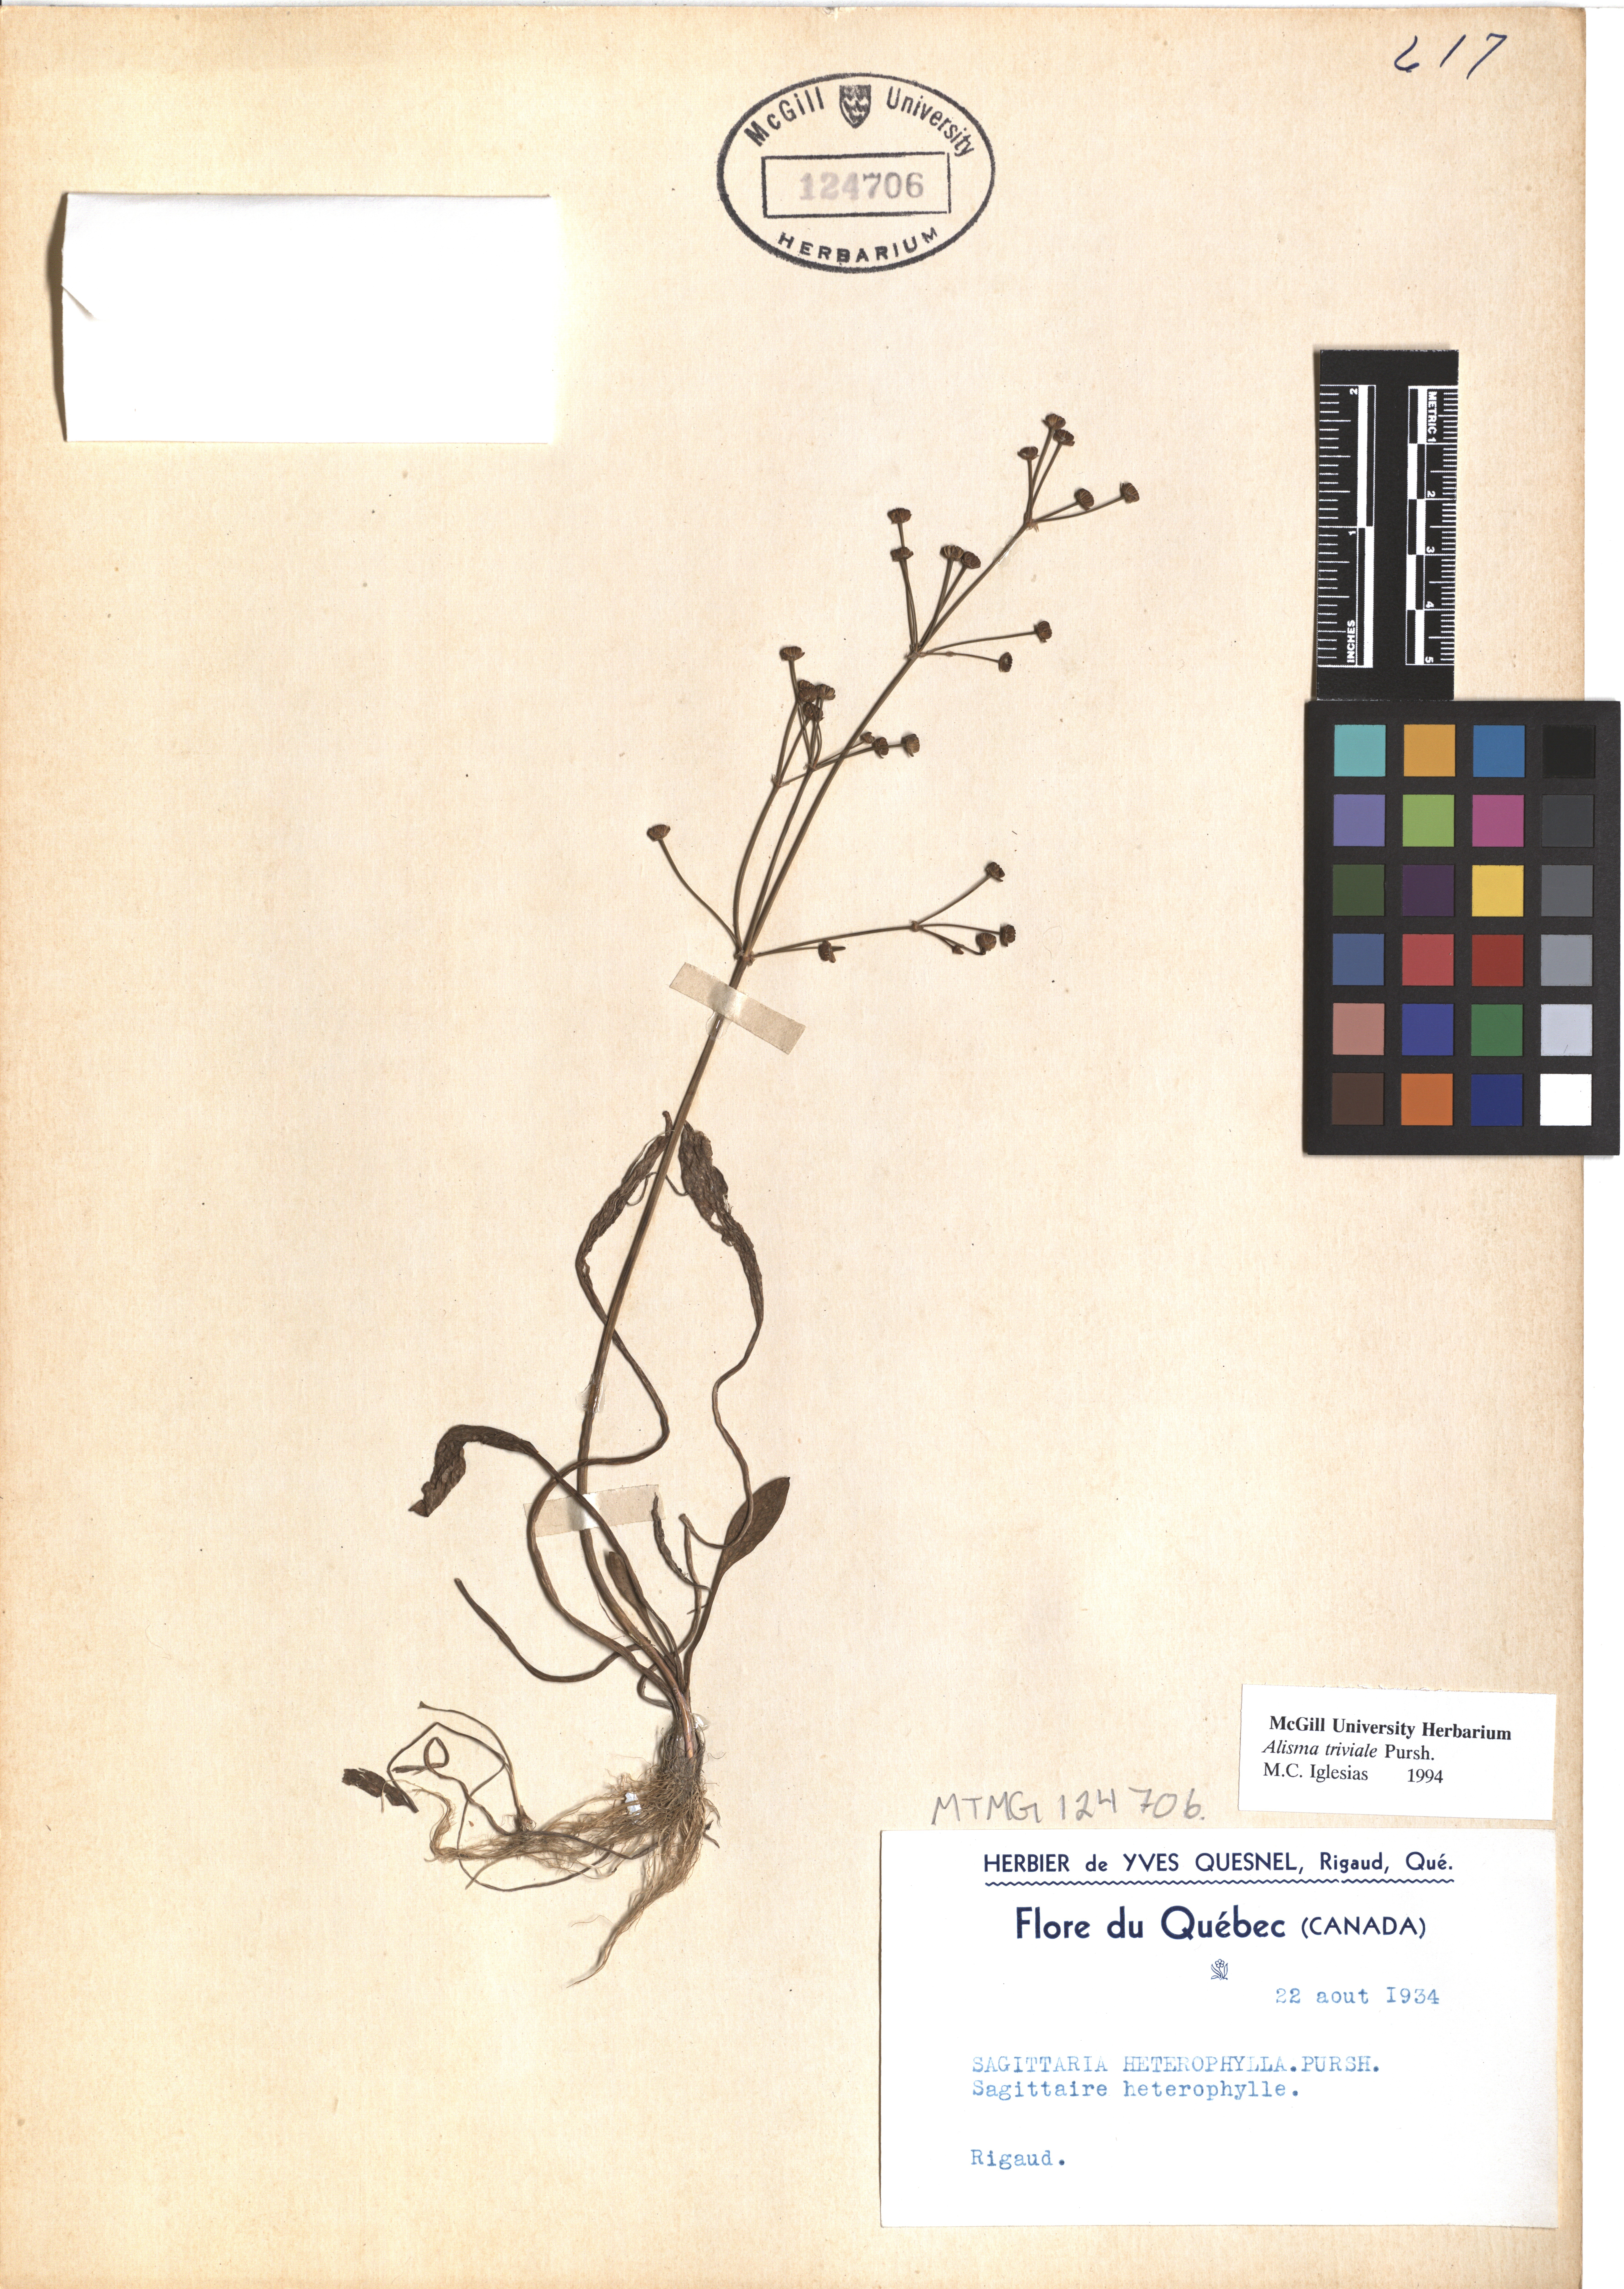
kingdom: Plantae
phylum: Tracheophyta
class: Liliopsida
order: Alismatales
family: Alismataceae
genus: Alisma
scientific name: Alisma triviale
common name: Northern water-plantain
